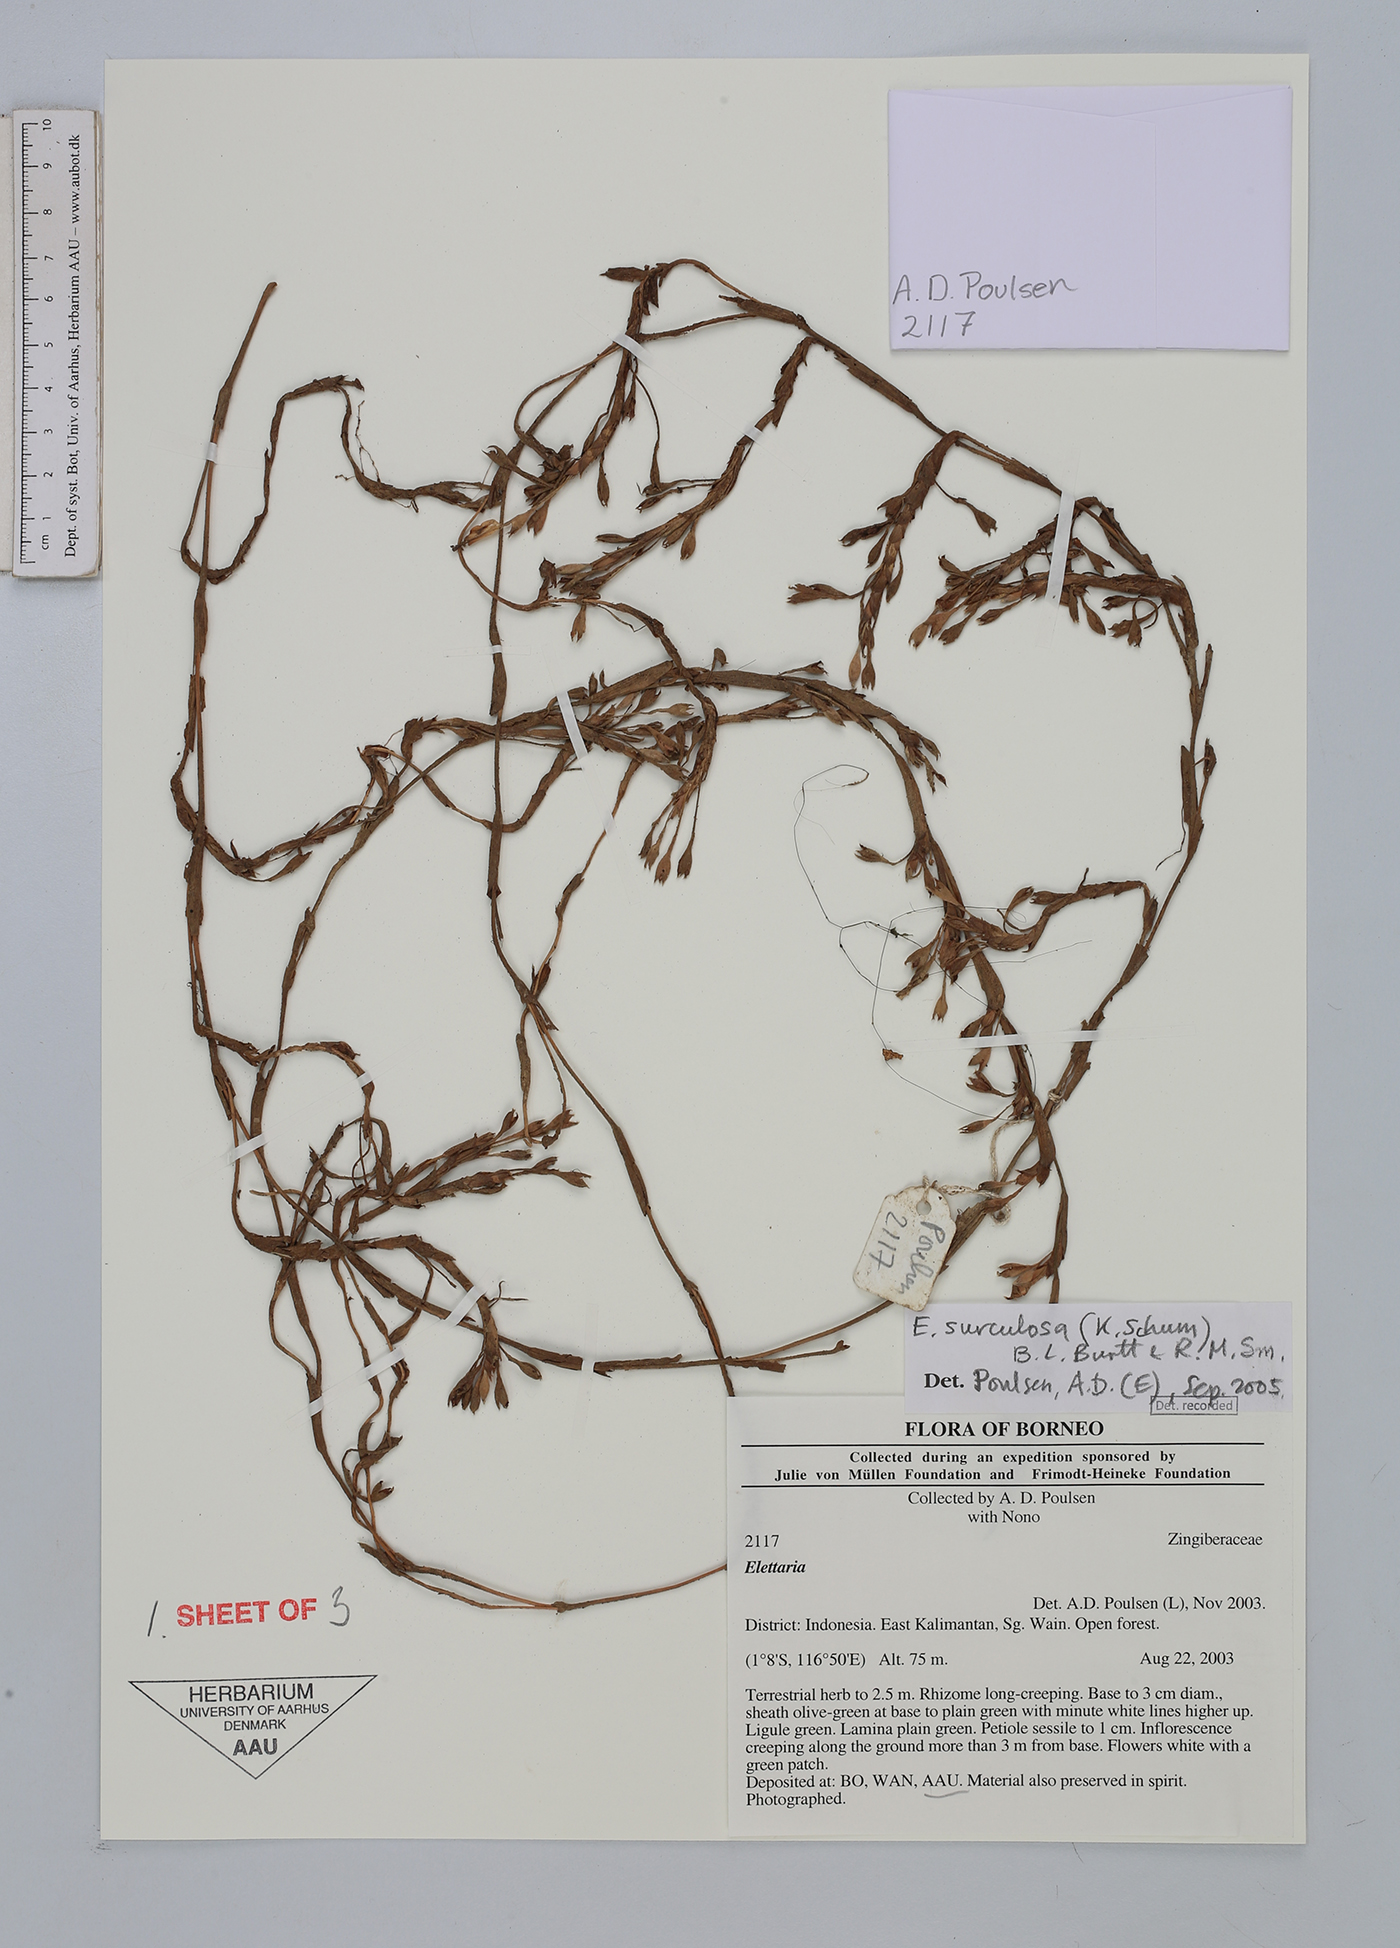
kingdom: Plantae
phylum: Tracheophyta
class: Liliopsida
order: Zingiberales
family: Zingiberaceae
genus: Sulettaria
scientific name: Sulettaria surculosa
